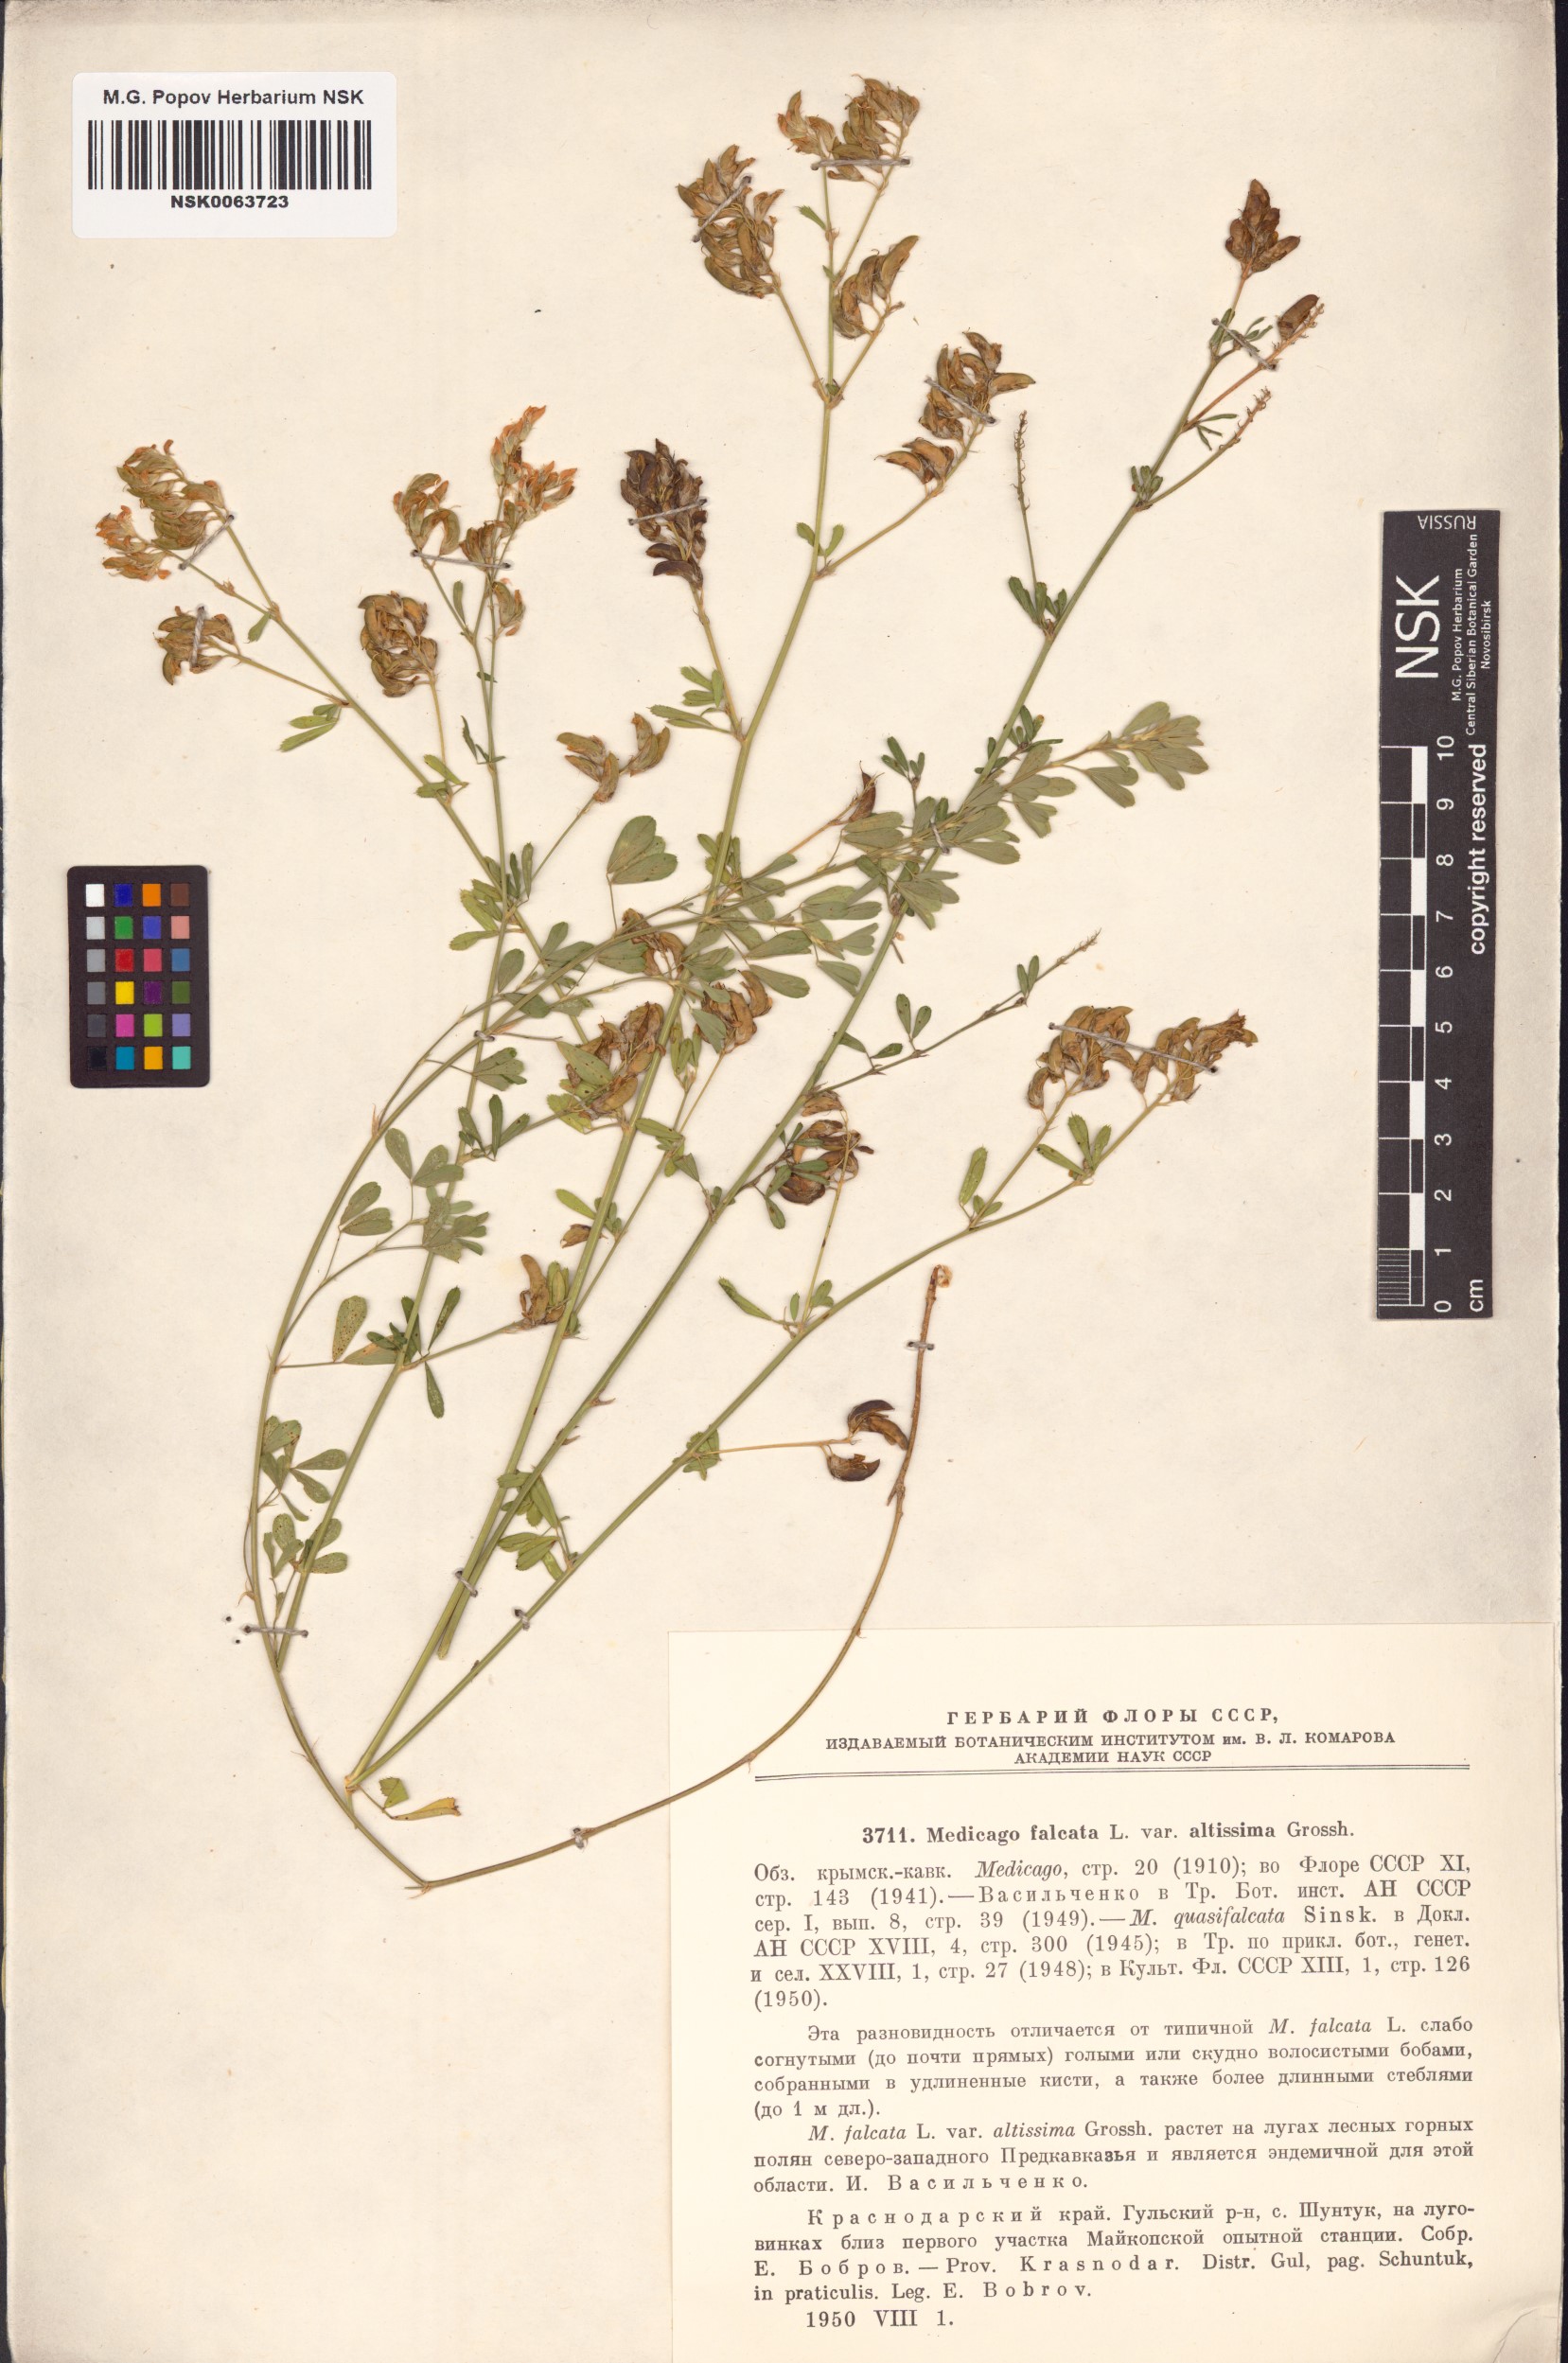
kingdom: Plantae
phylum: Tracheophyta
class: Magnoliopsida
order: Fabales
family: Fabaceae
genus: Medicago
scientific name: Medicago falcata
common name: Sickle medick
